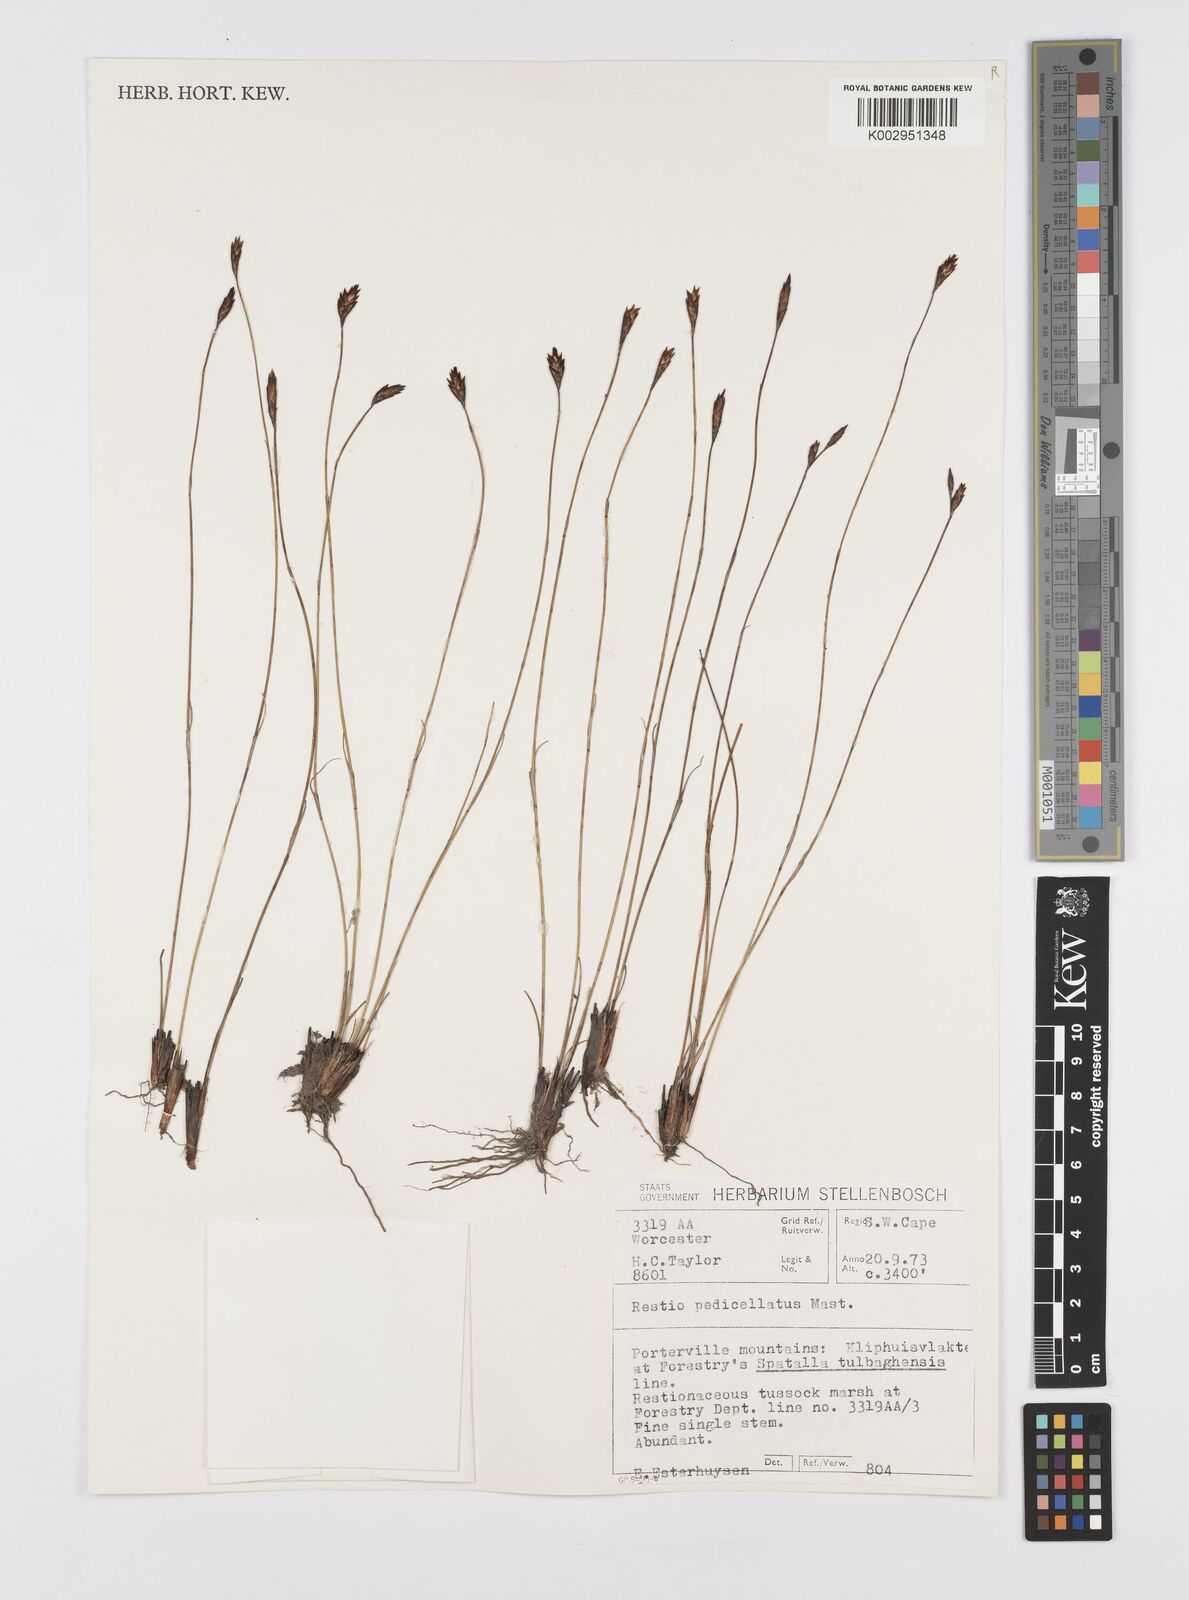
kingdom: Plantae
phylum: Tracheophyta
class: Liliopsida
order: Poales
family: Restionaceae
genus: Restio
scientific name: Restio pedicellatus
